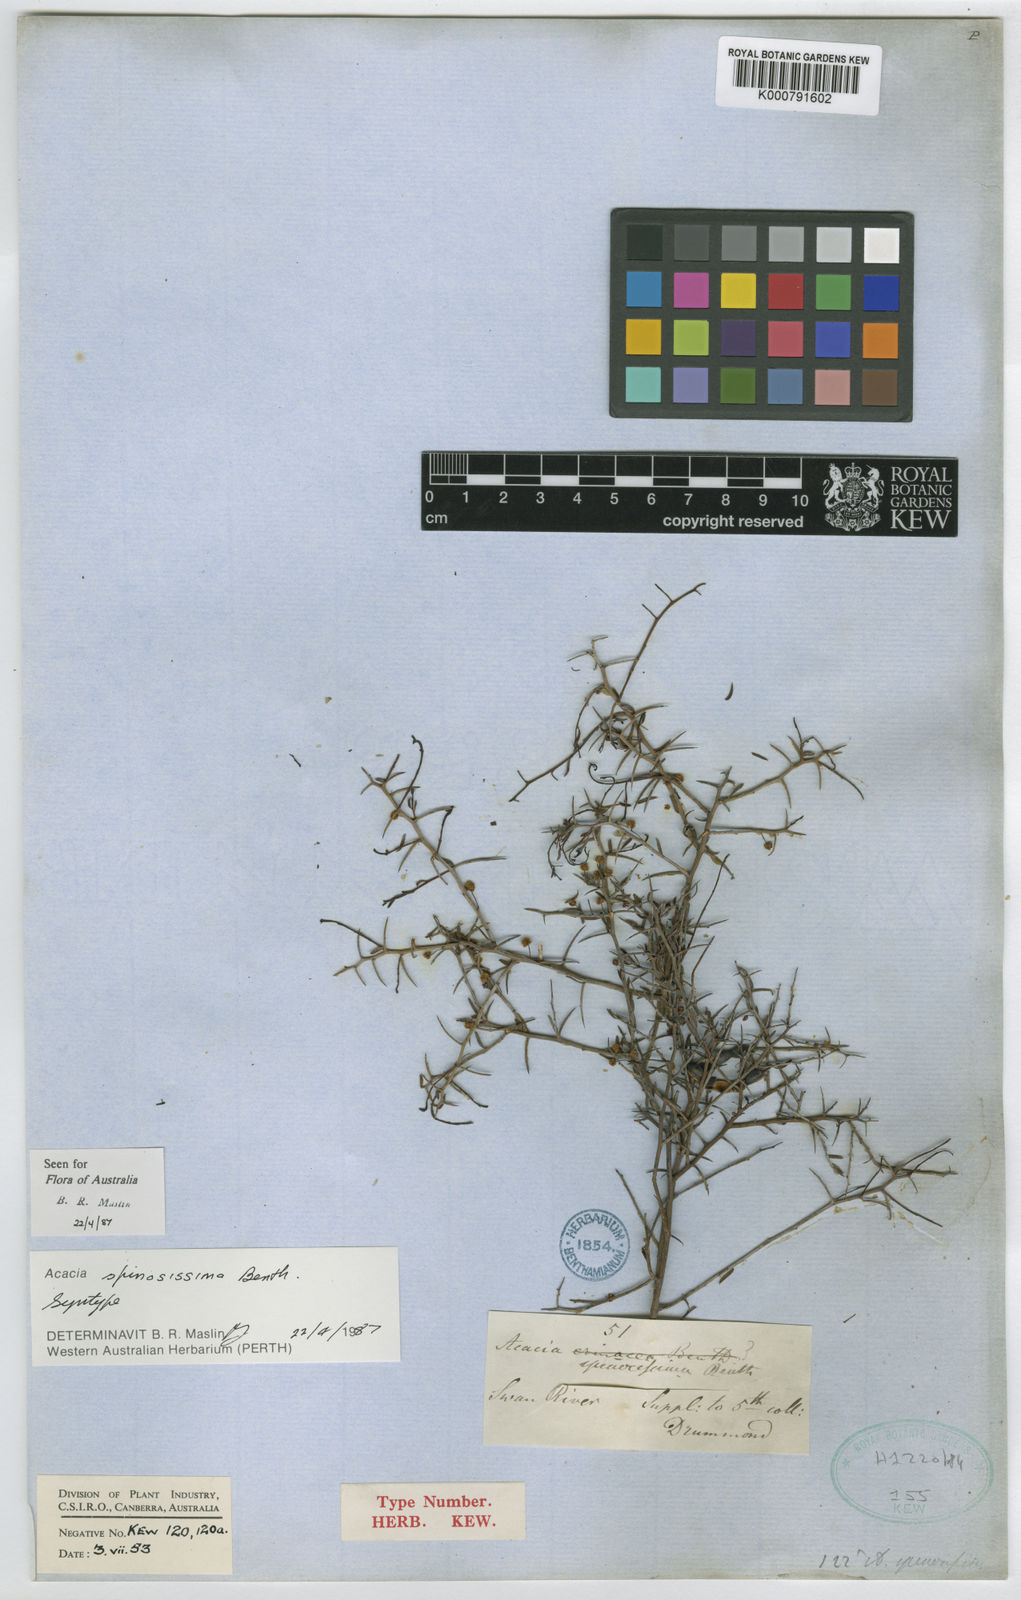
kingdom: Plantae
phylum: Tracheophyta
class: Magnoliopsida
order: Fabales
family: Fabaceae
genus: Acacia
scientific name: Acacia
